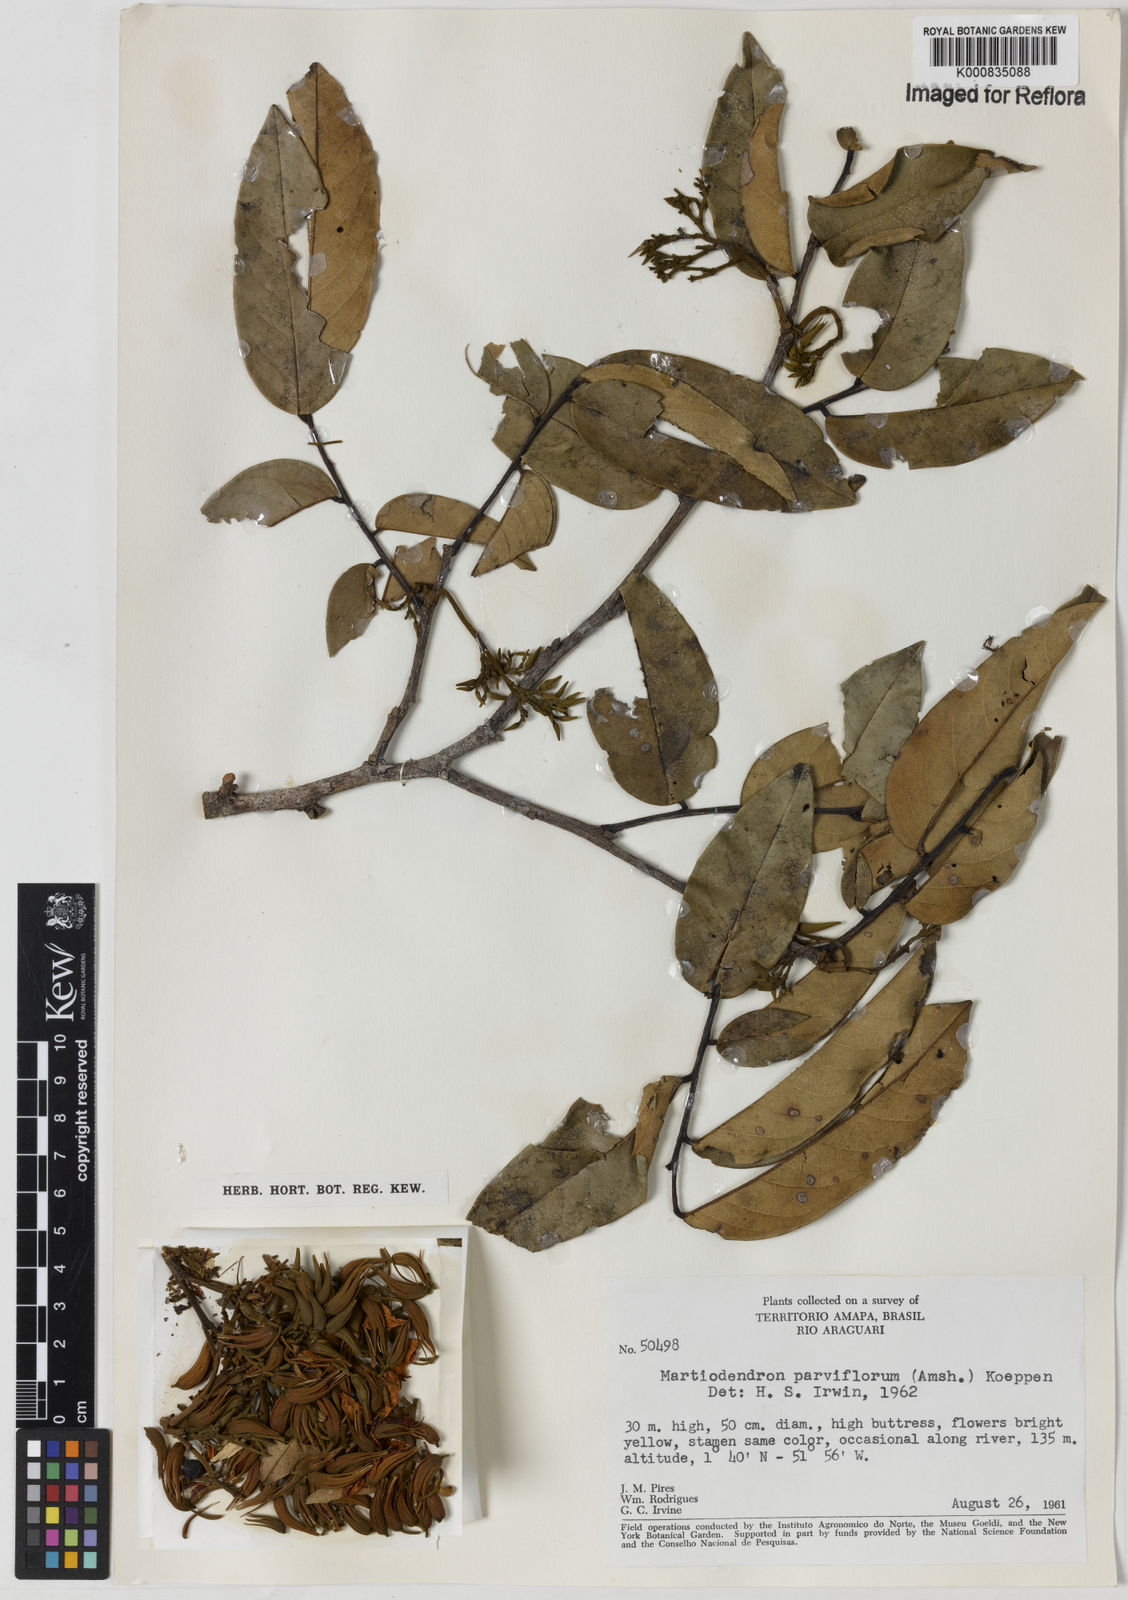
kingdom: Plantae
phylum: Tracheophyta
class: Magnoliopsida
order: Fabales
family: Fabaceae
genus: Martiodendron
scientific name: Martiodendron
